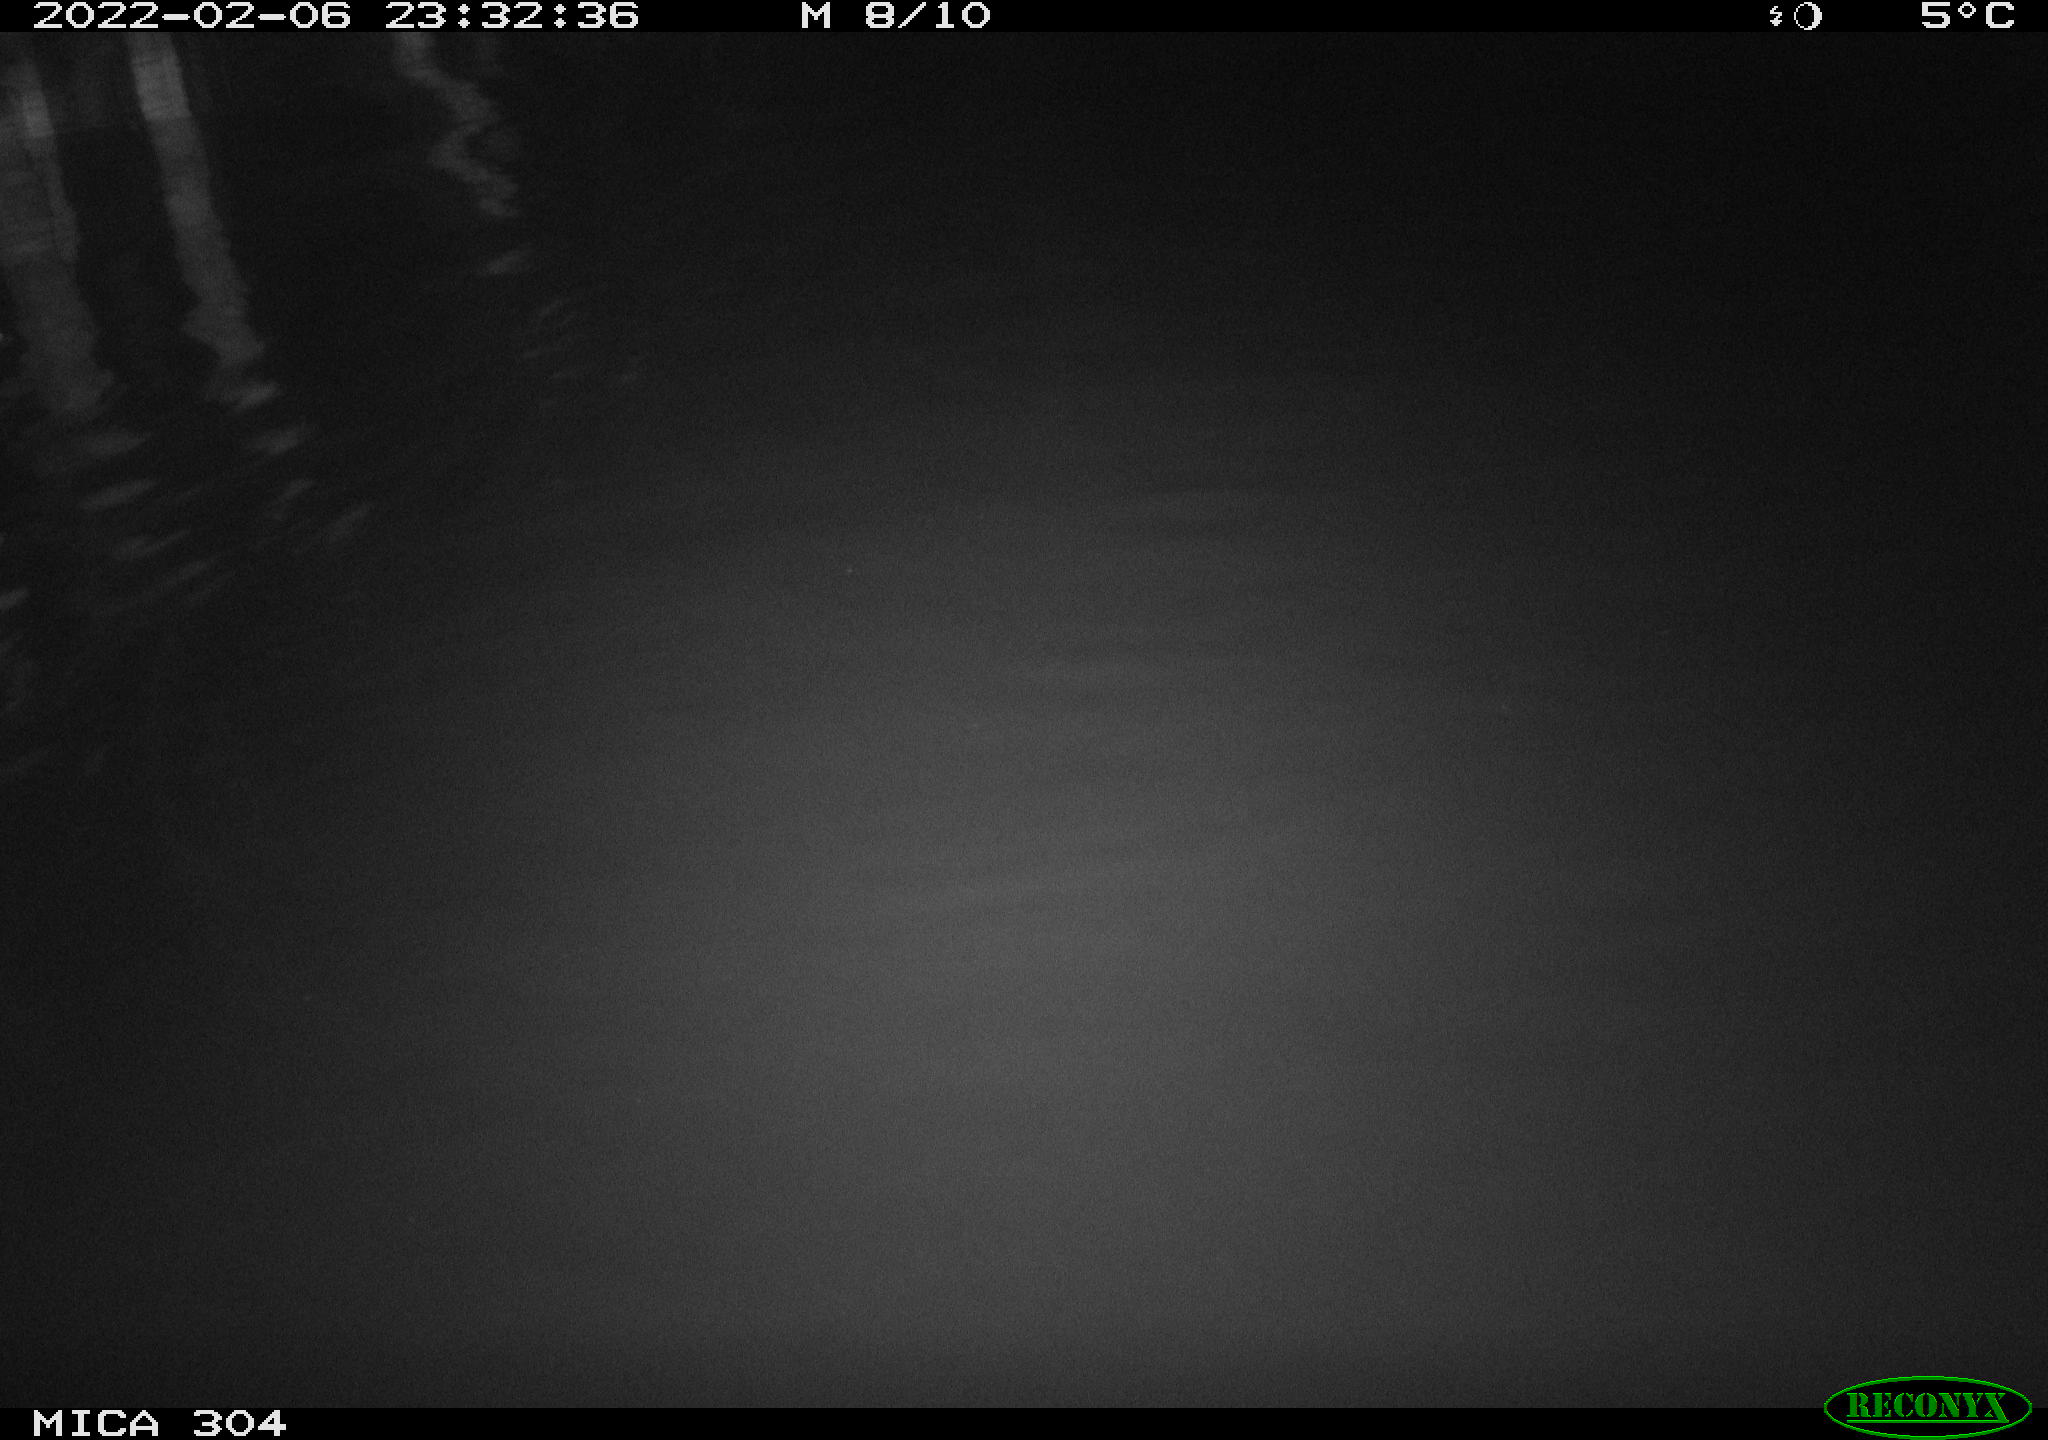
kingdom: Animalia
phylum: Chordata
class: Mammalia
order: Rodentia
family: Cricetidae
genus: Ondatra
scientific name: Ondatra zibethicus
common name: Muskrat
